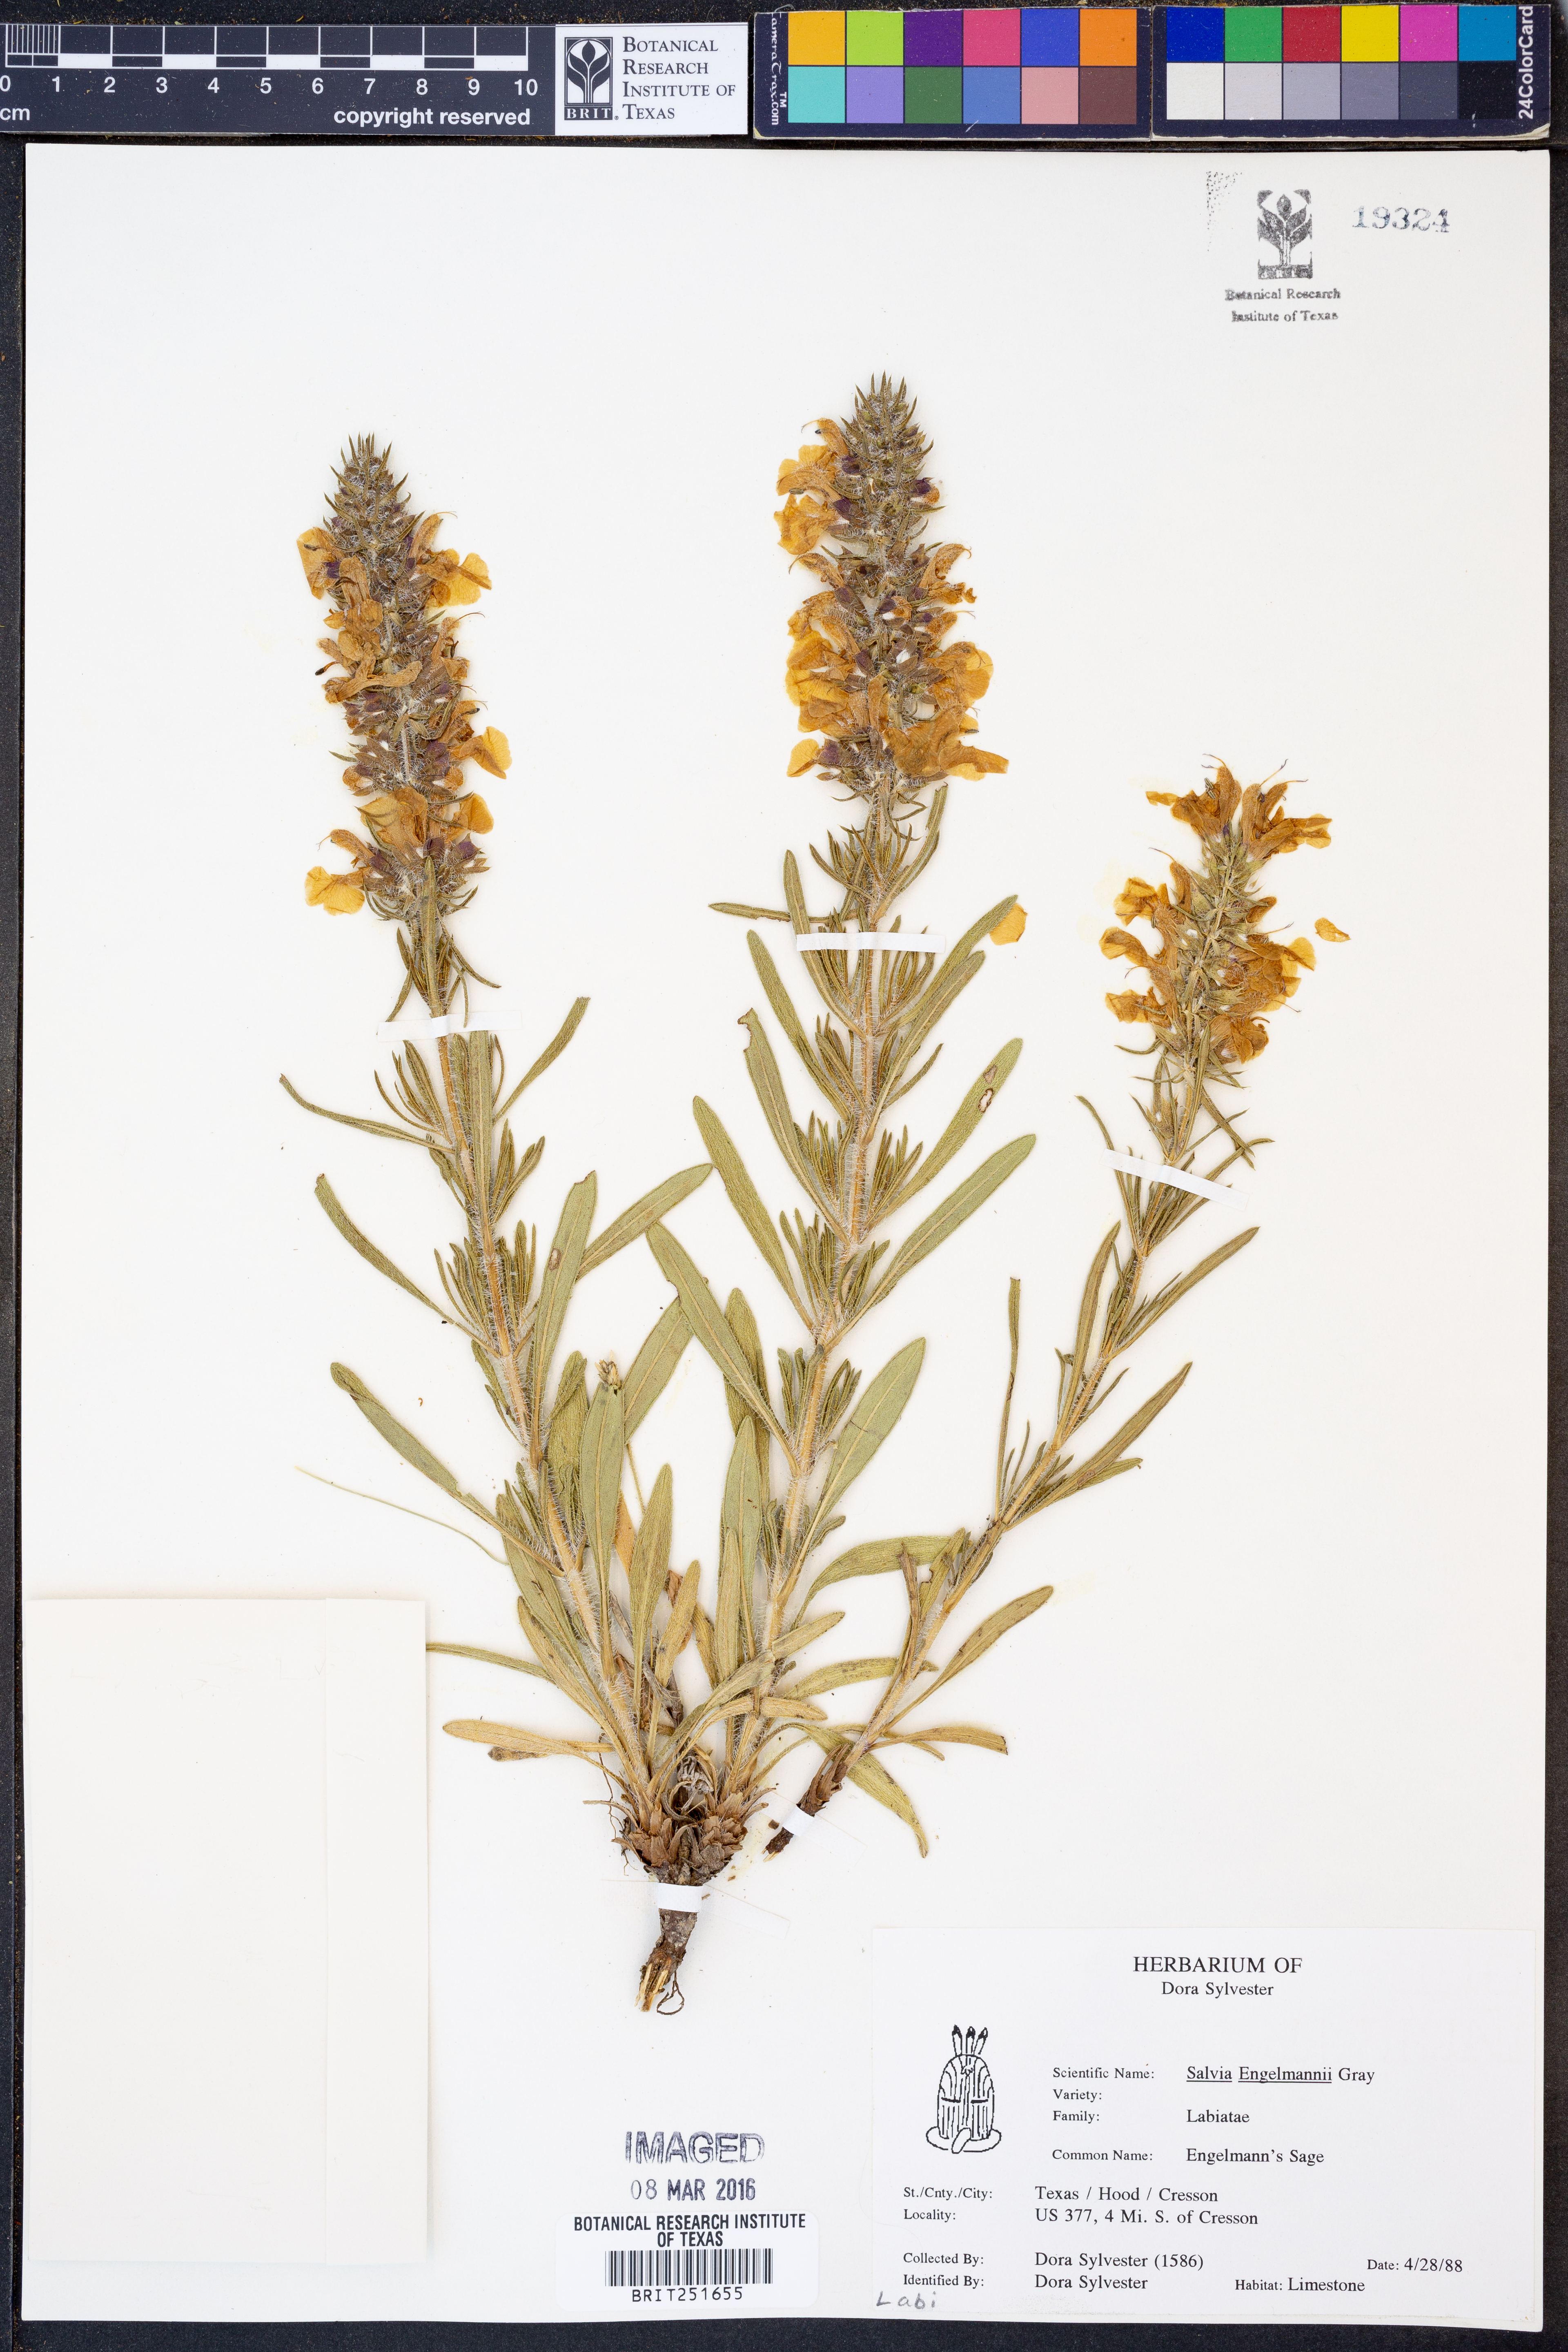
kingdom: Plantae
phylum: Tracheophyta
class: Magnoliopsida
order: Lamiales
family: Lamiaceae
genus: Salvia
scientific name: Salvia engelmannii
